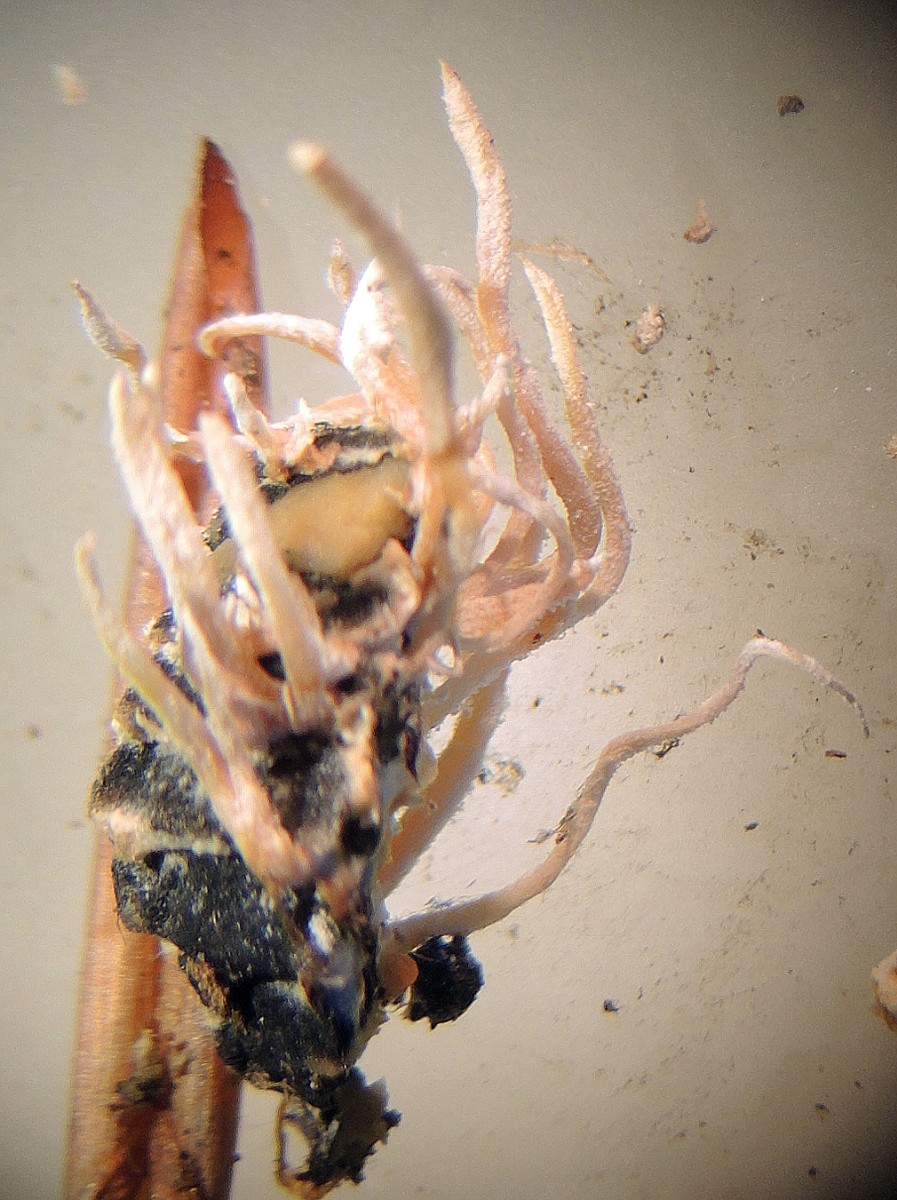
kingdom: Fungi
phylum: Ascomycota
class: Sordariomycetes
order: Hypocreales
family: Cordycipitaceae
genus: Isaria
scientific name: Isaria
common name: snyltekølle
